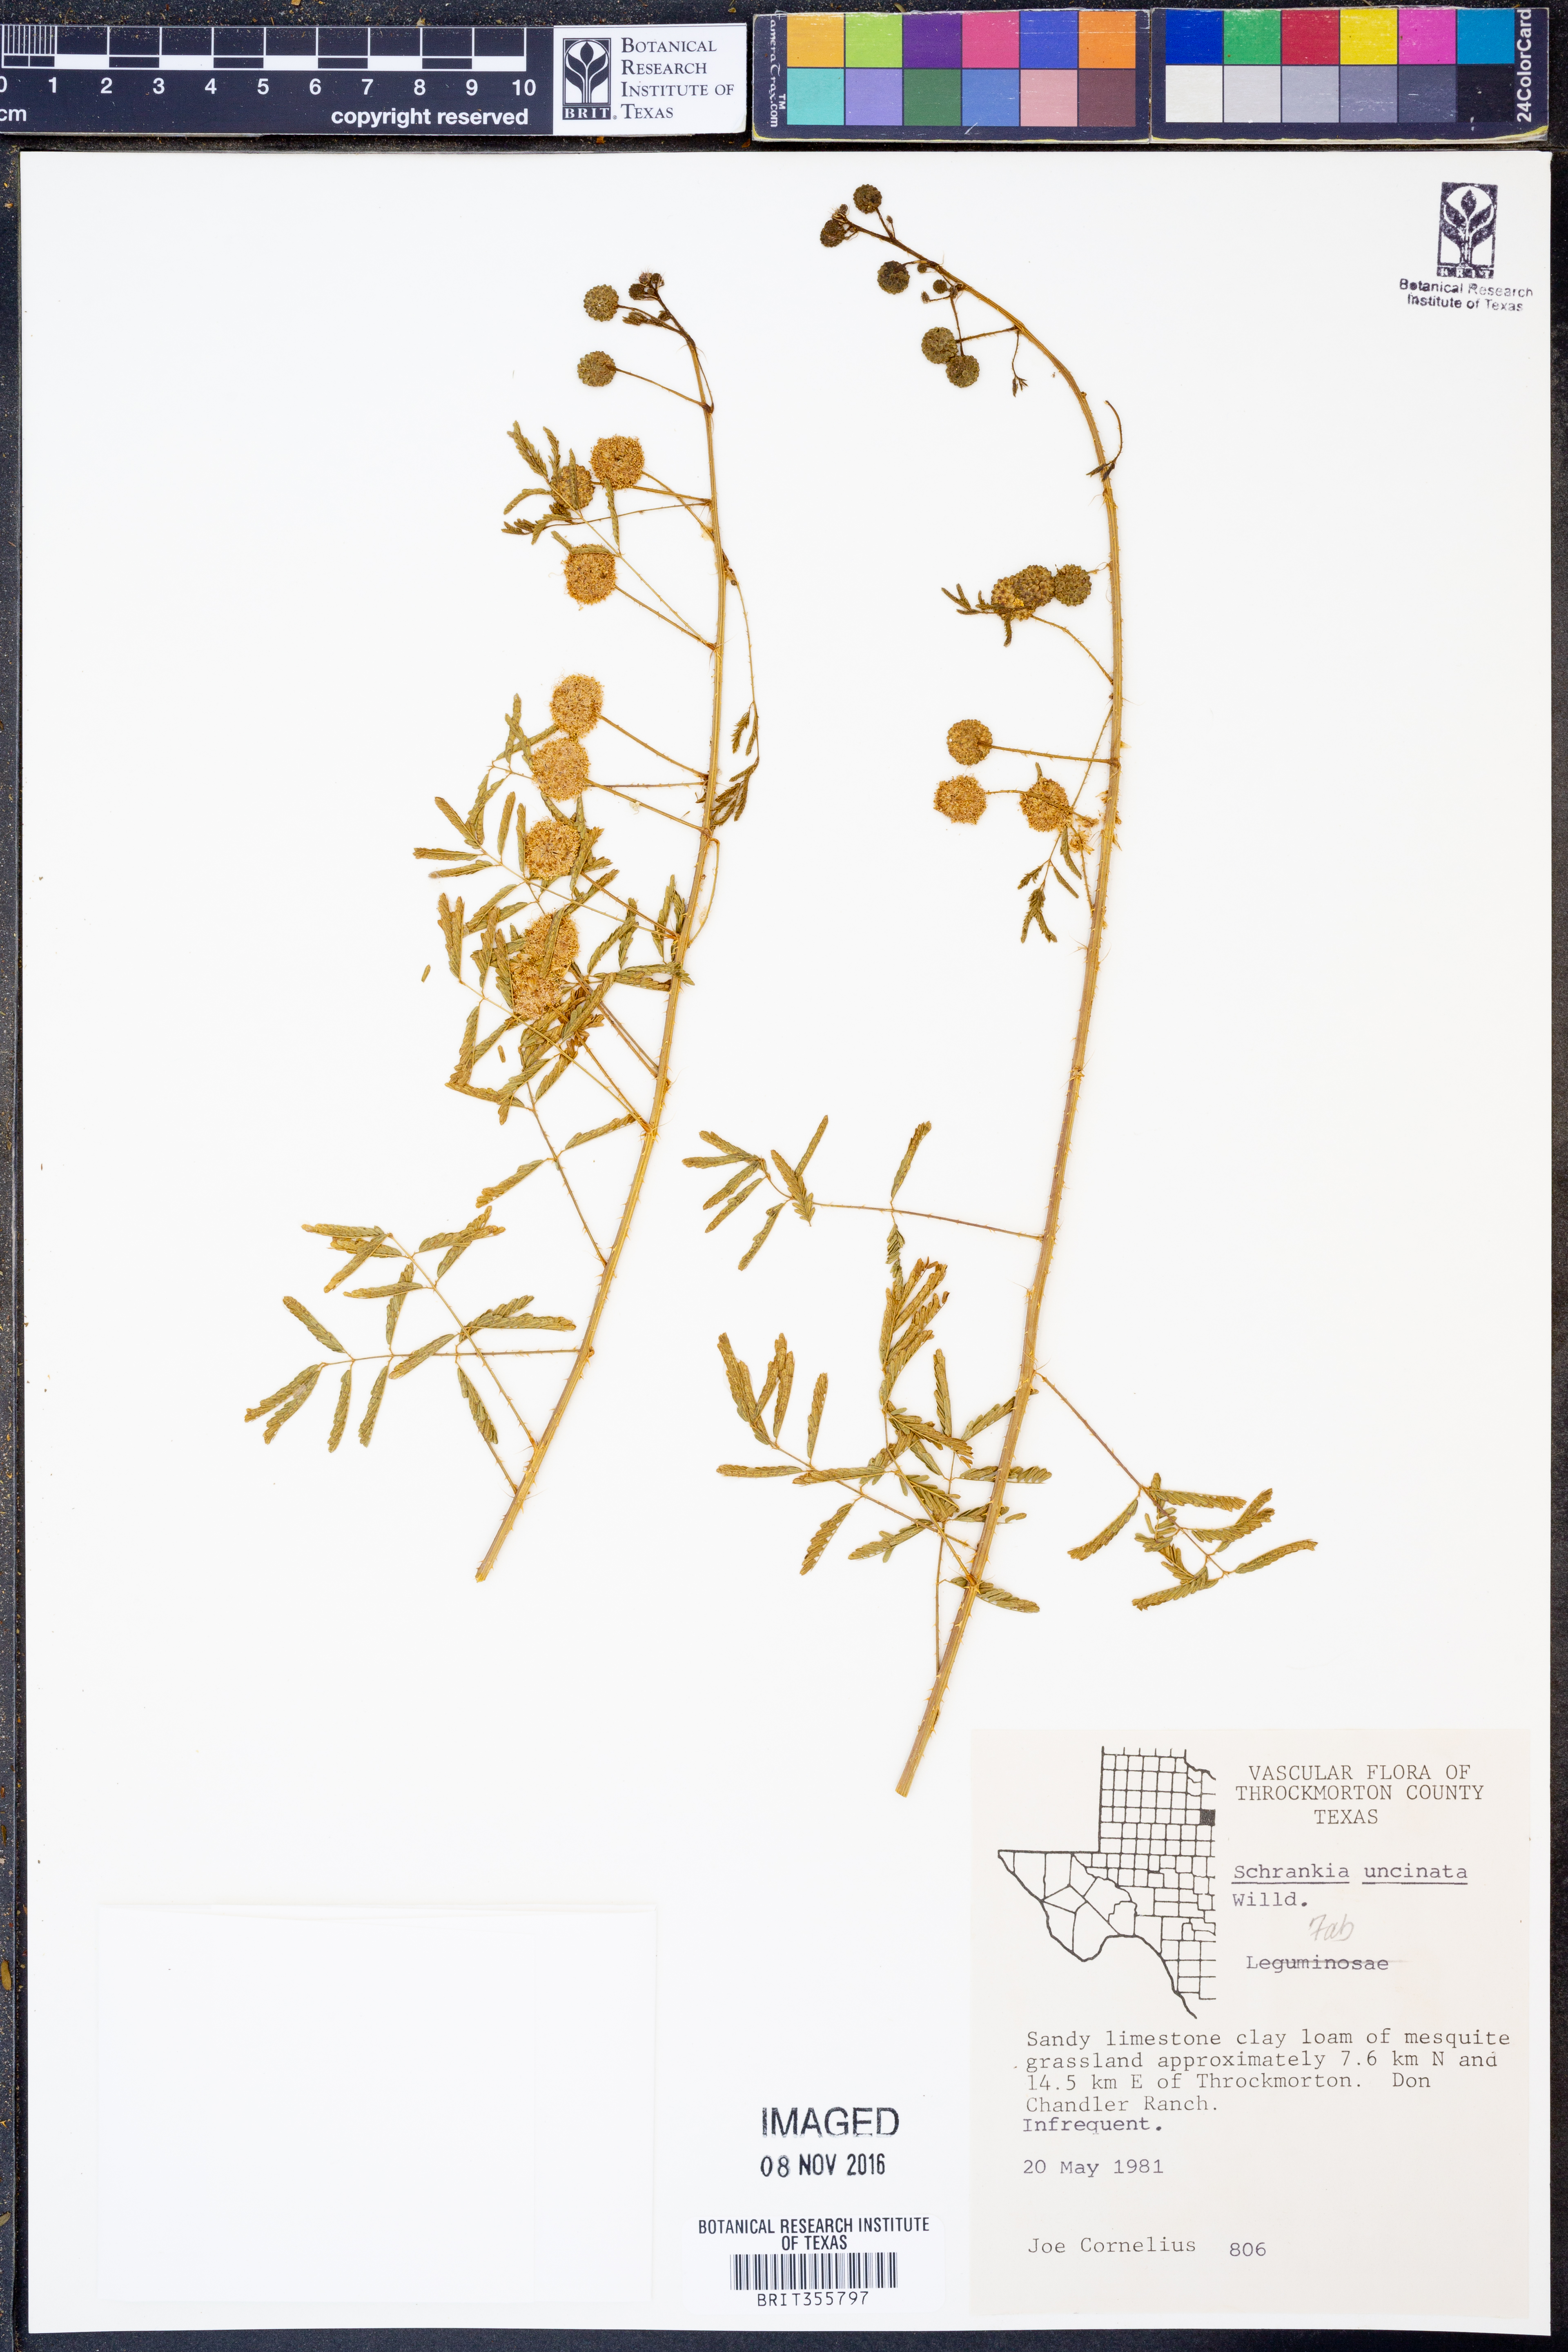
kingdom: Plantae
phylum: Tracheophyta
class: Magnoliopsida
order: Fabales
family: Fabaceae
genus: Mimosa
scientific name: Mimosa quadrivalvis
